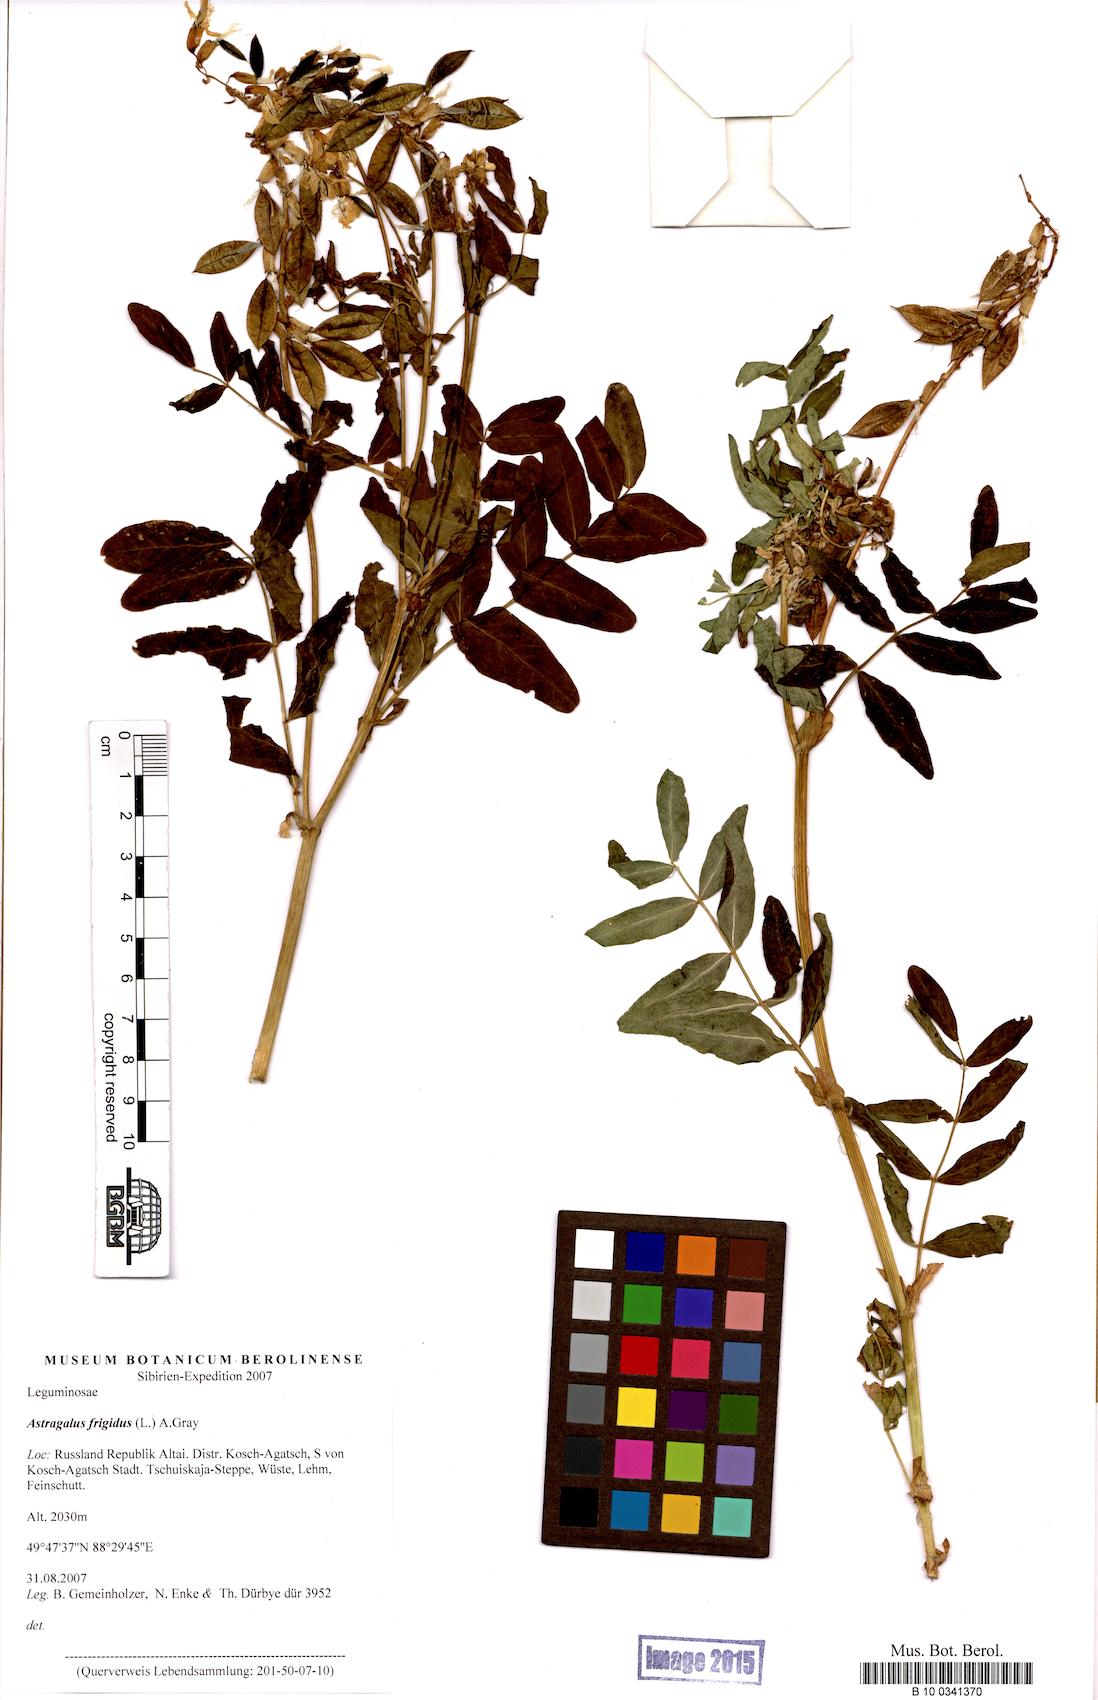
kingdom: Plantae
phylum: Tracheophyta
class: Magnoliopsida
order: Fabales
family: Fabaceae
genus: Astragalus
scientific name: Astragalus frigidus
